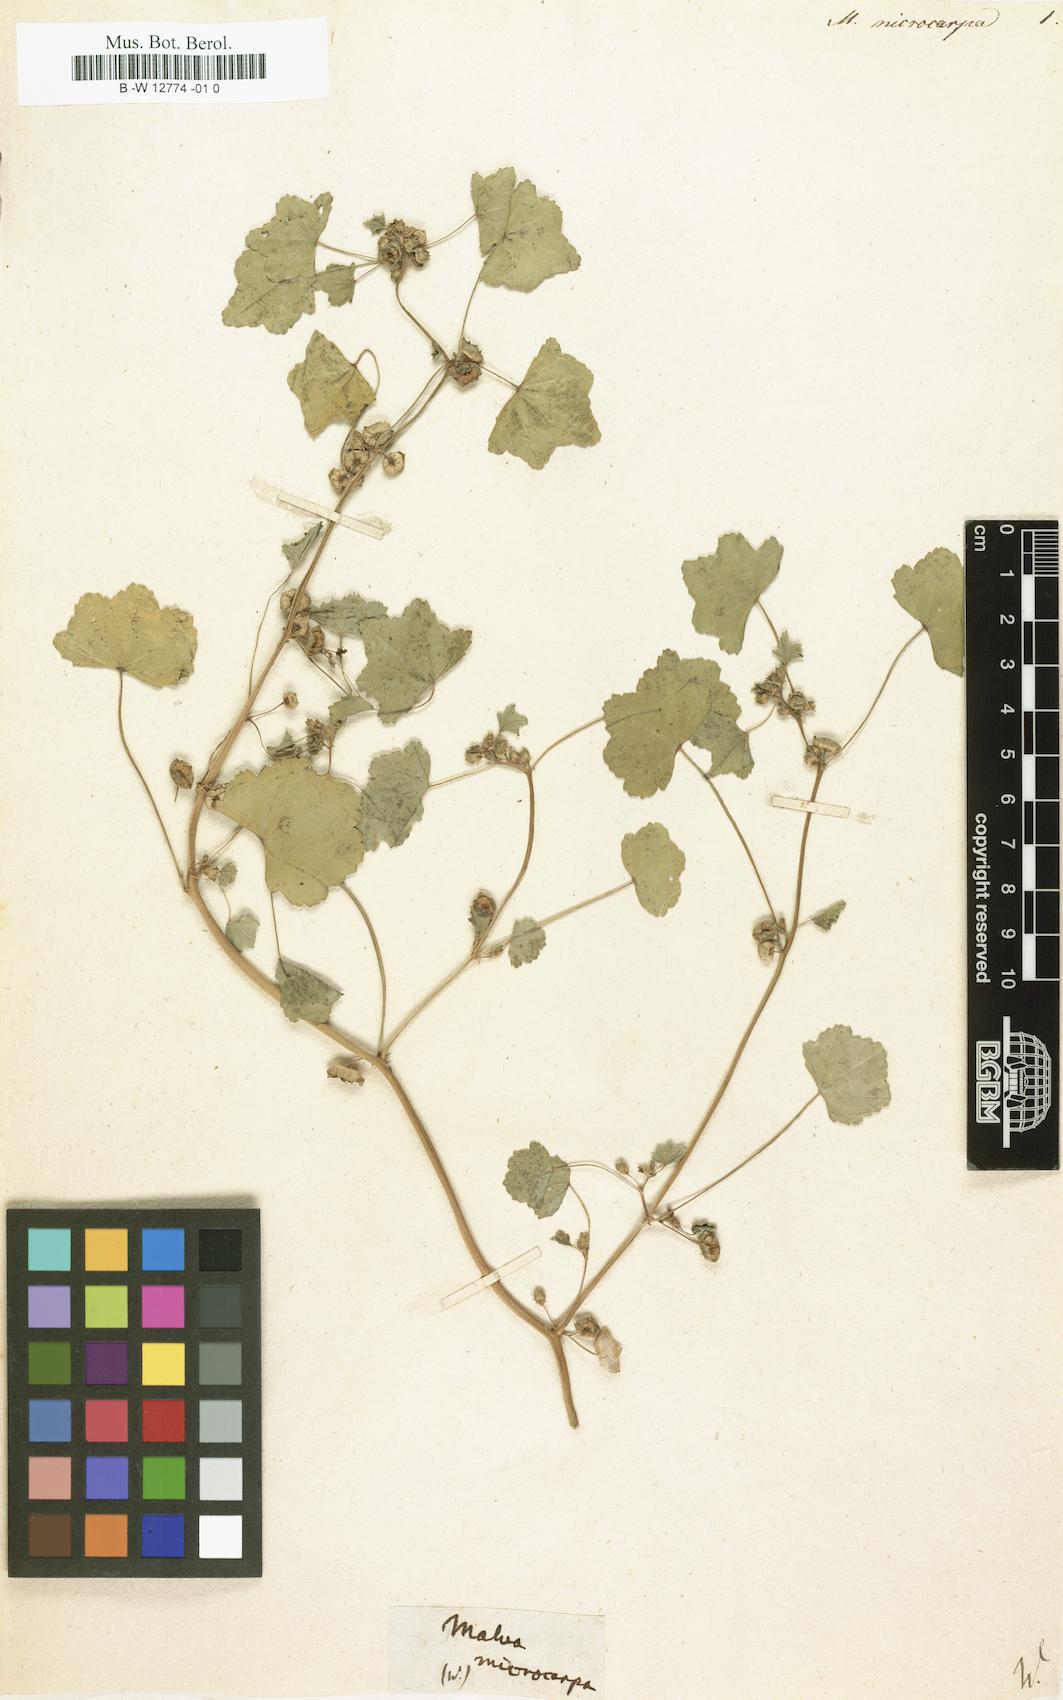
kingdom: Plantae
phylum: Tracheophyta
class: Magnoliopsida
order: Malvales
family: Malvaceae
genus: Malva
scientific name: Malva parviflora
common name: Least mallow
